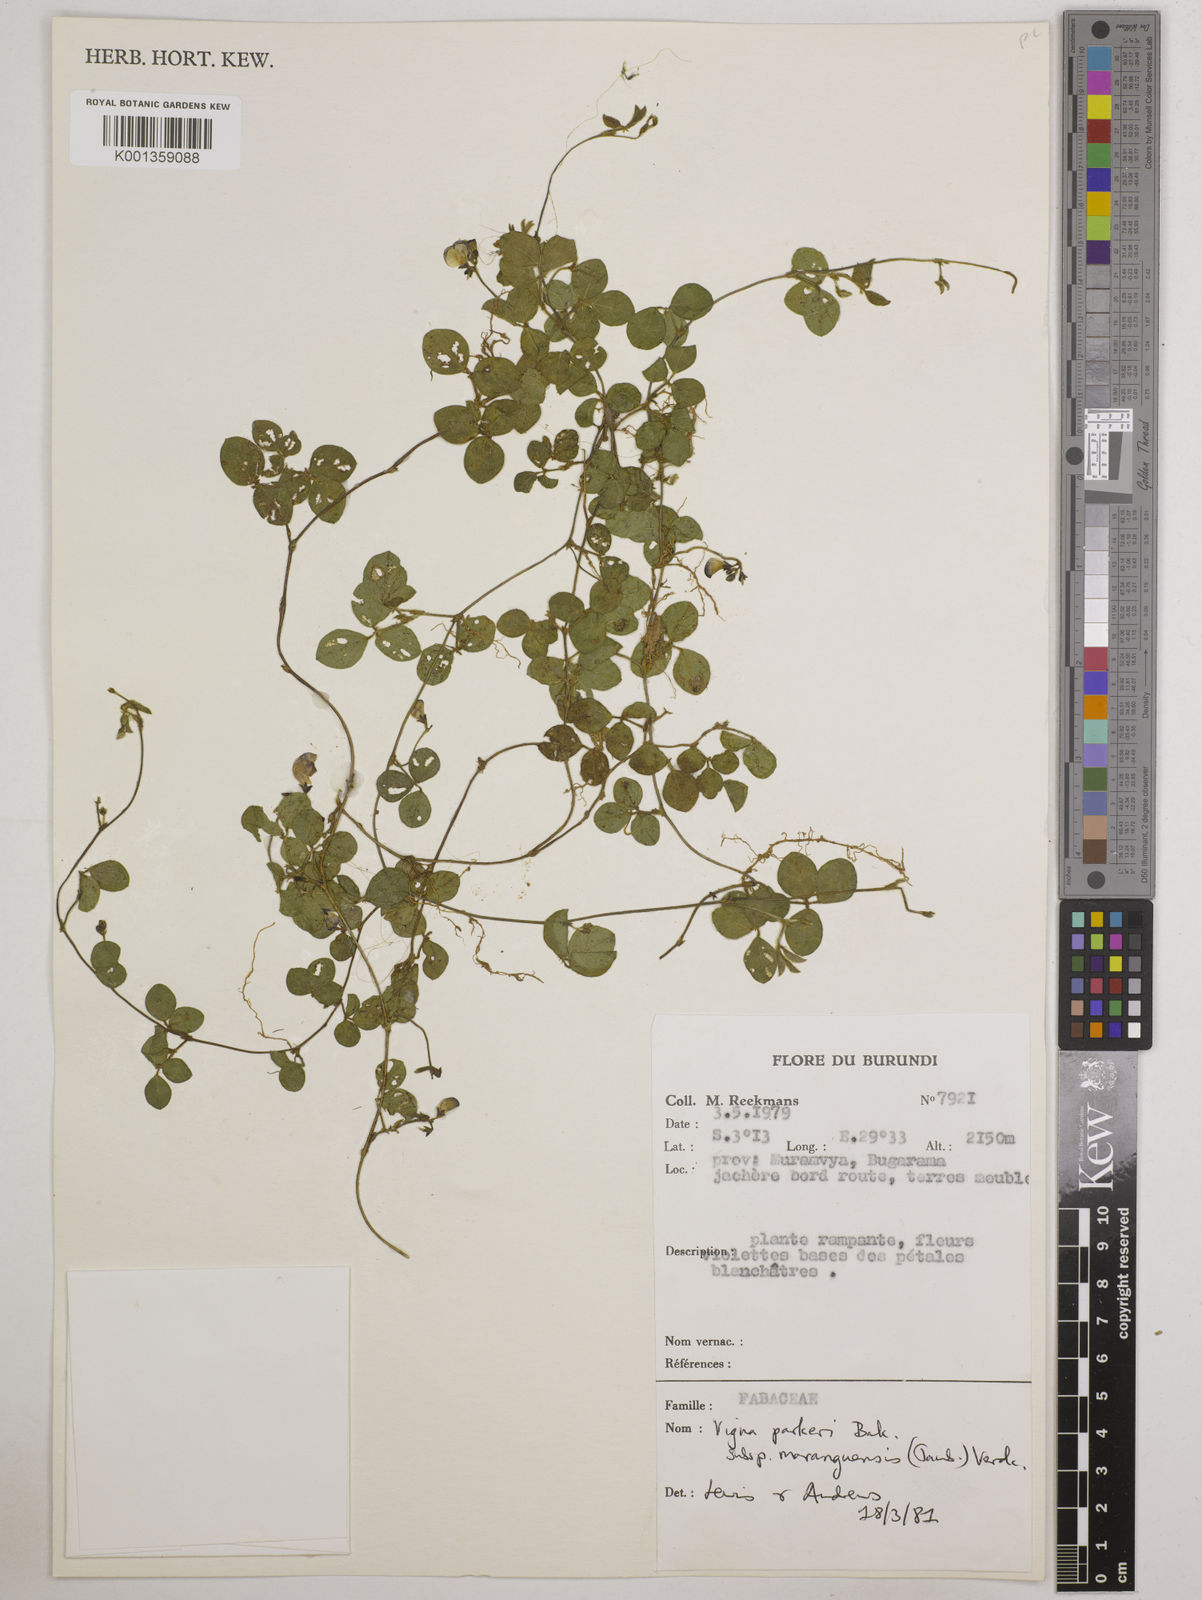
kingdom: Plantae
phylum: Tracheophyta
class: Magnoliopsida
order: Fabales
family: Fabaceae
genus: Vigna
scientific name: Vigna
